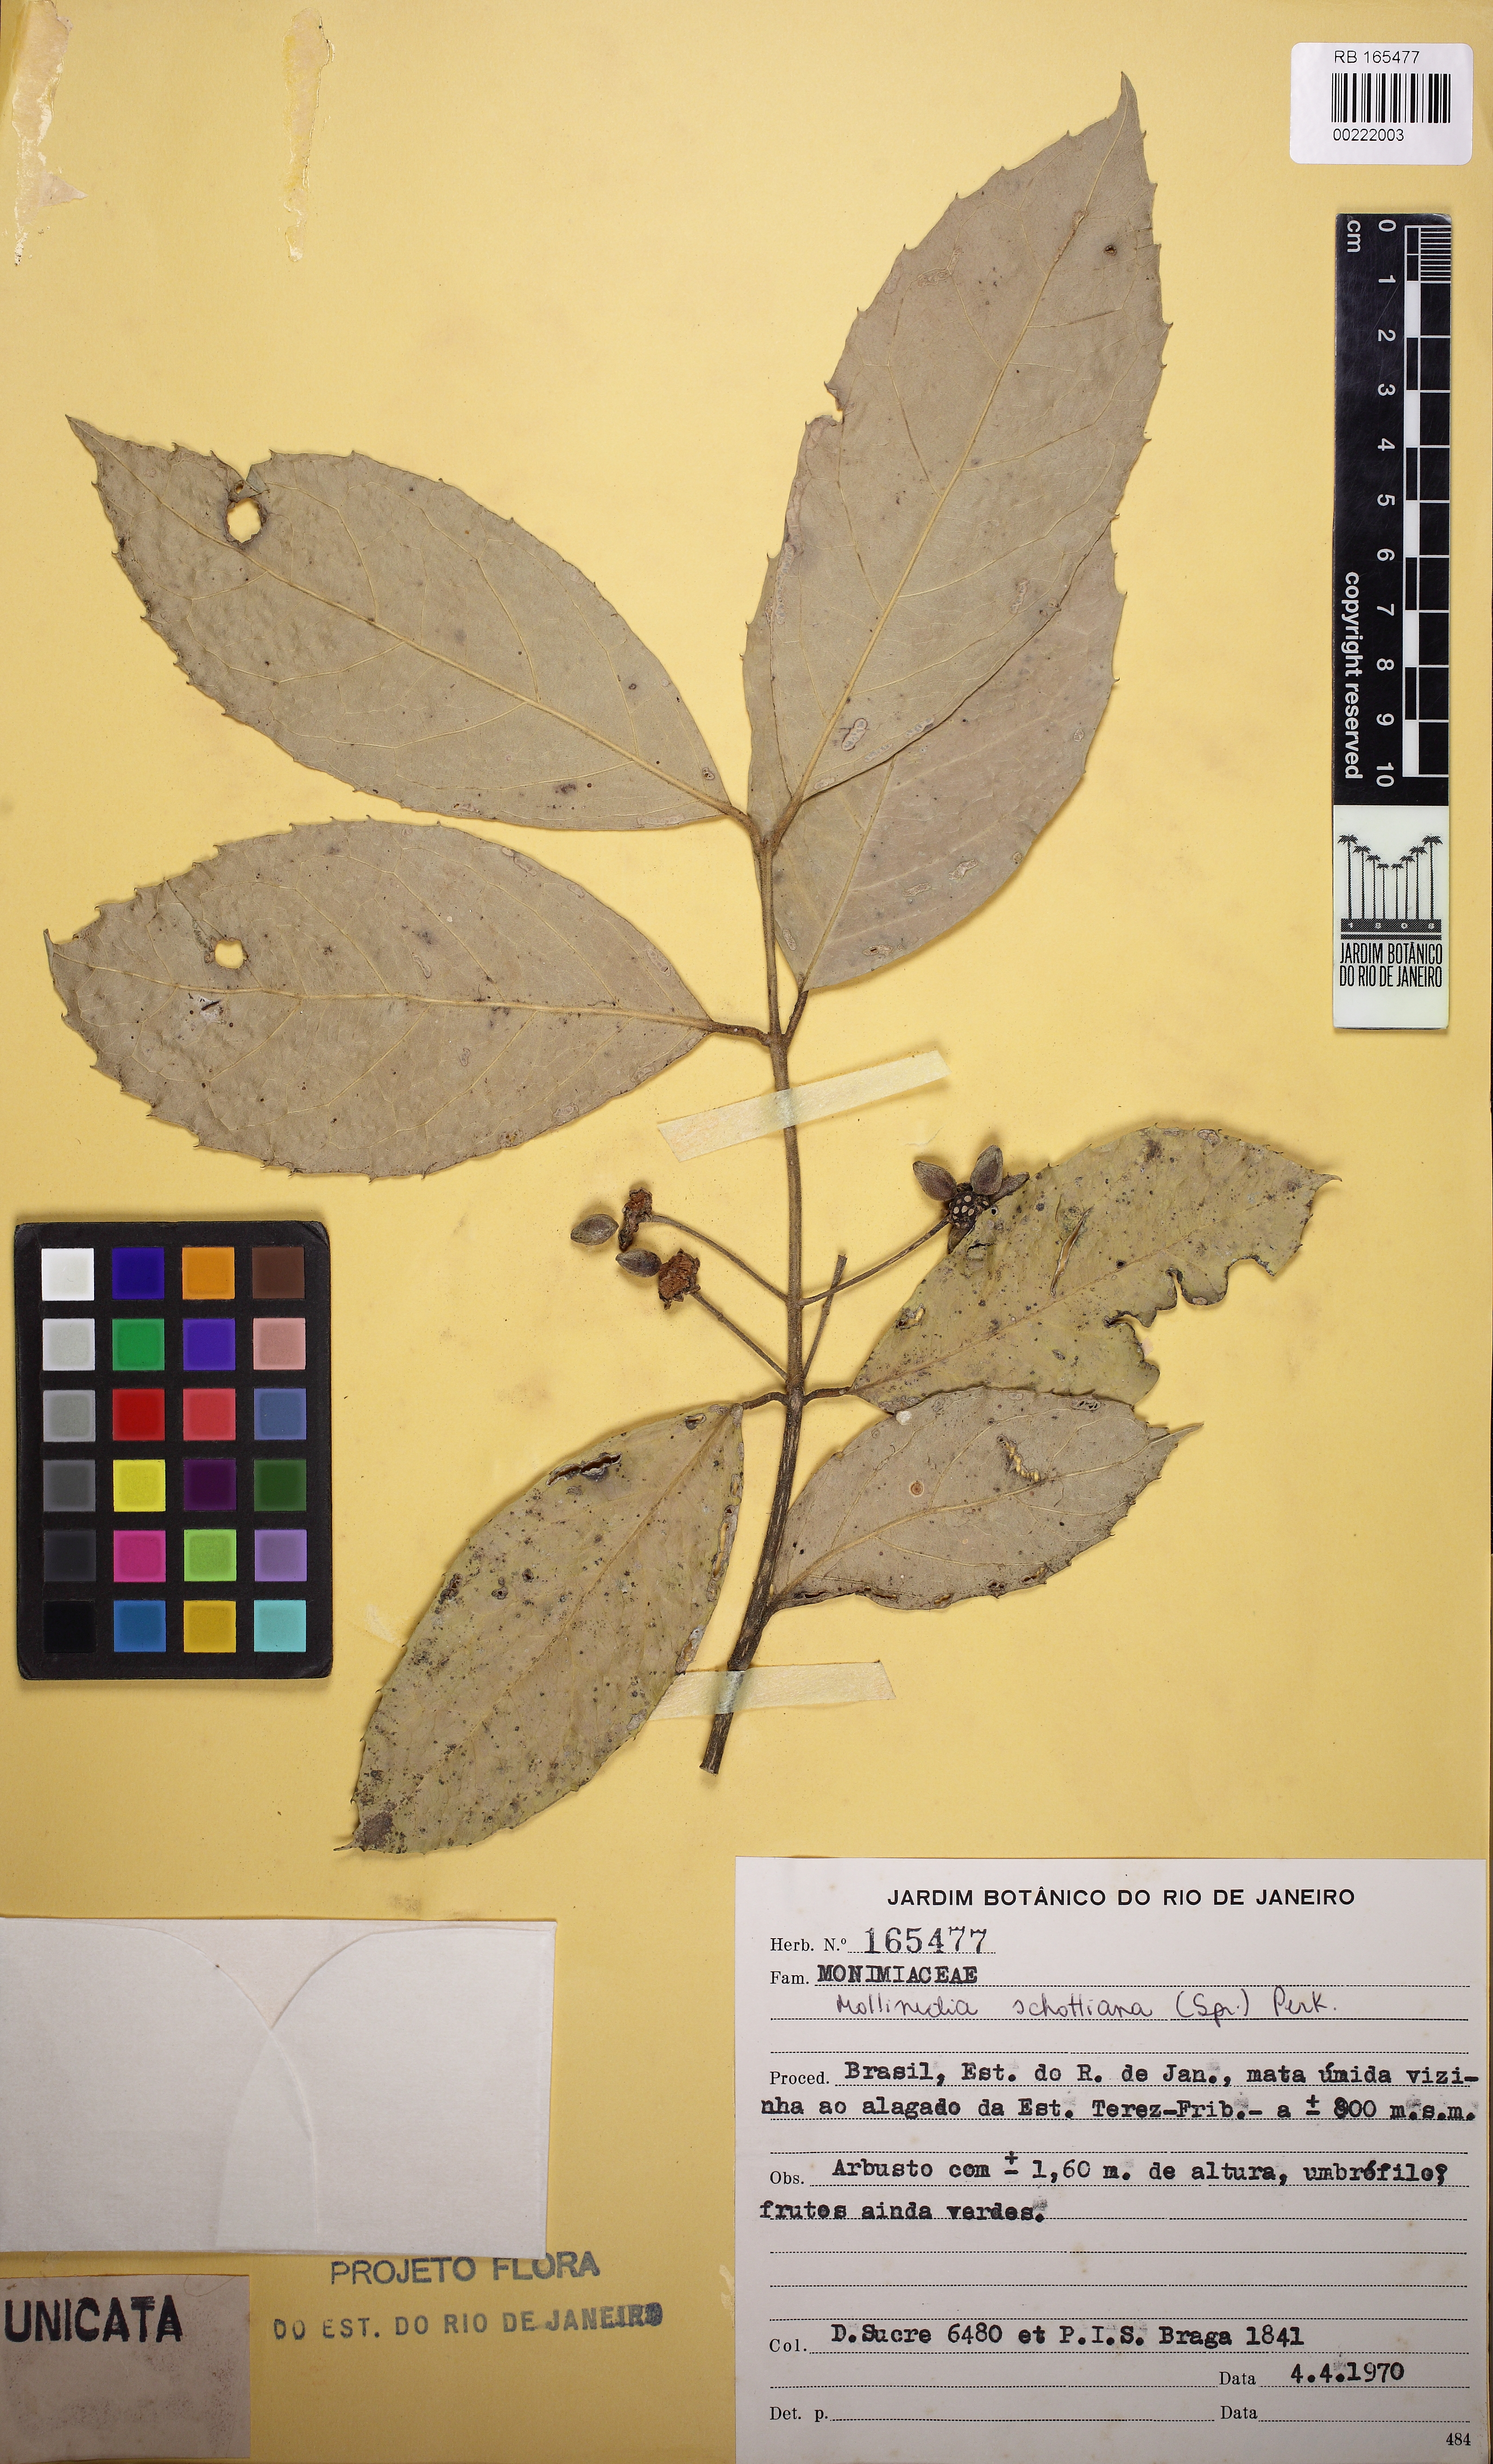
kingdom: Plantae
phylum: Tracheophyta
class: Magnoliopsida
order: Laurales
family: Monimiaceae
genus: Mollinedia
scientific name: Mollinedia umbellata
